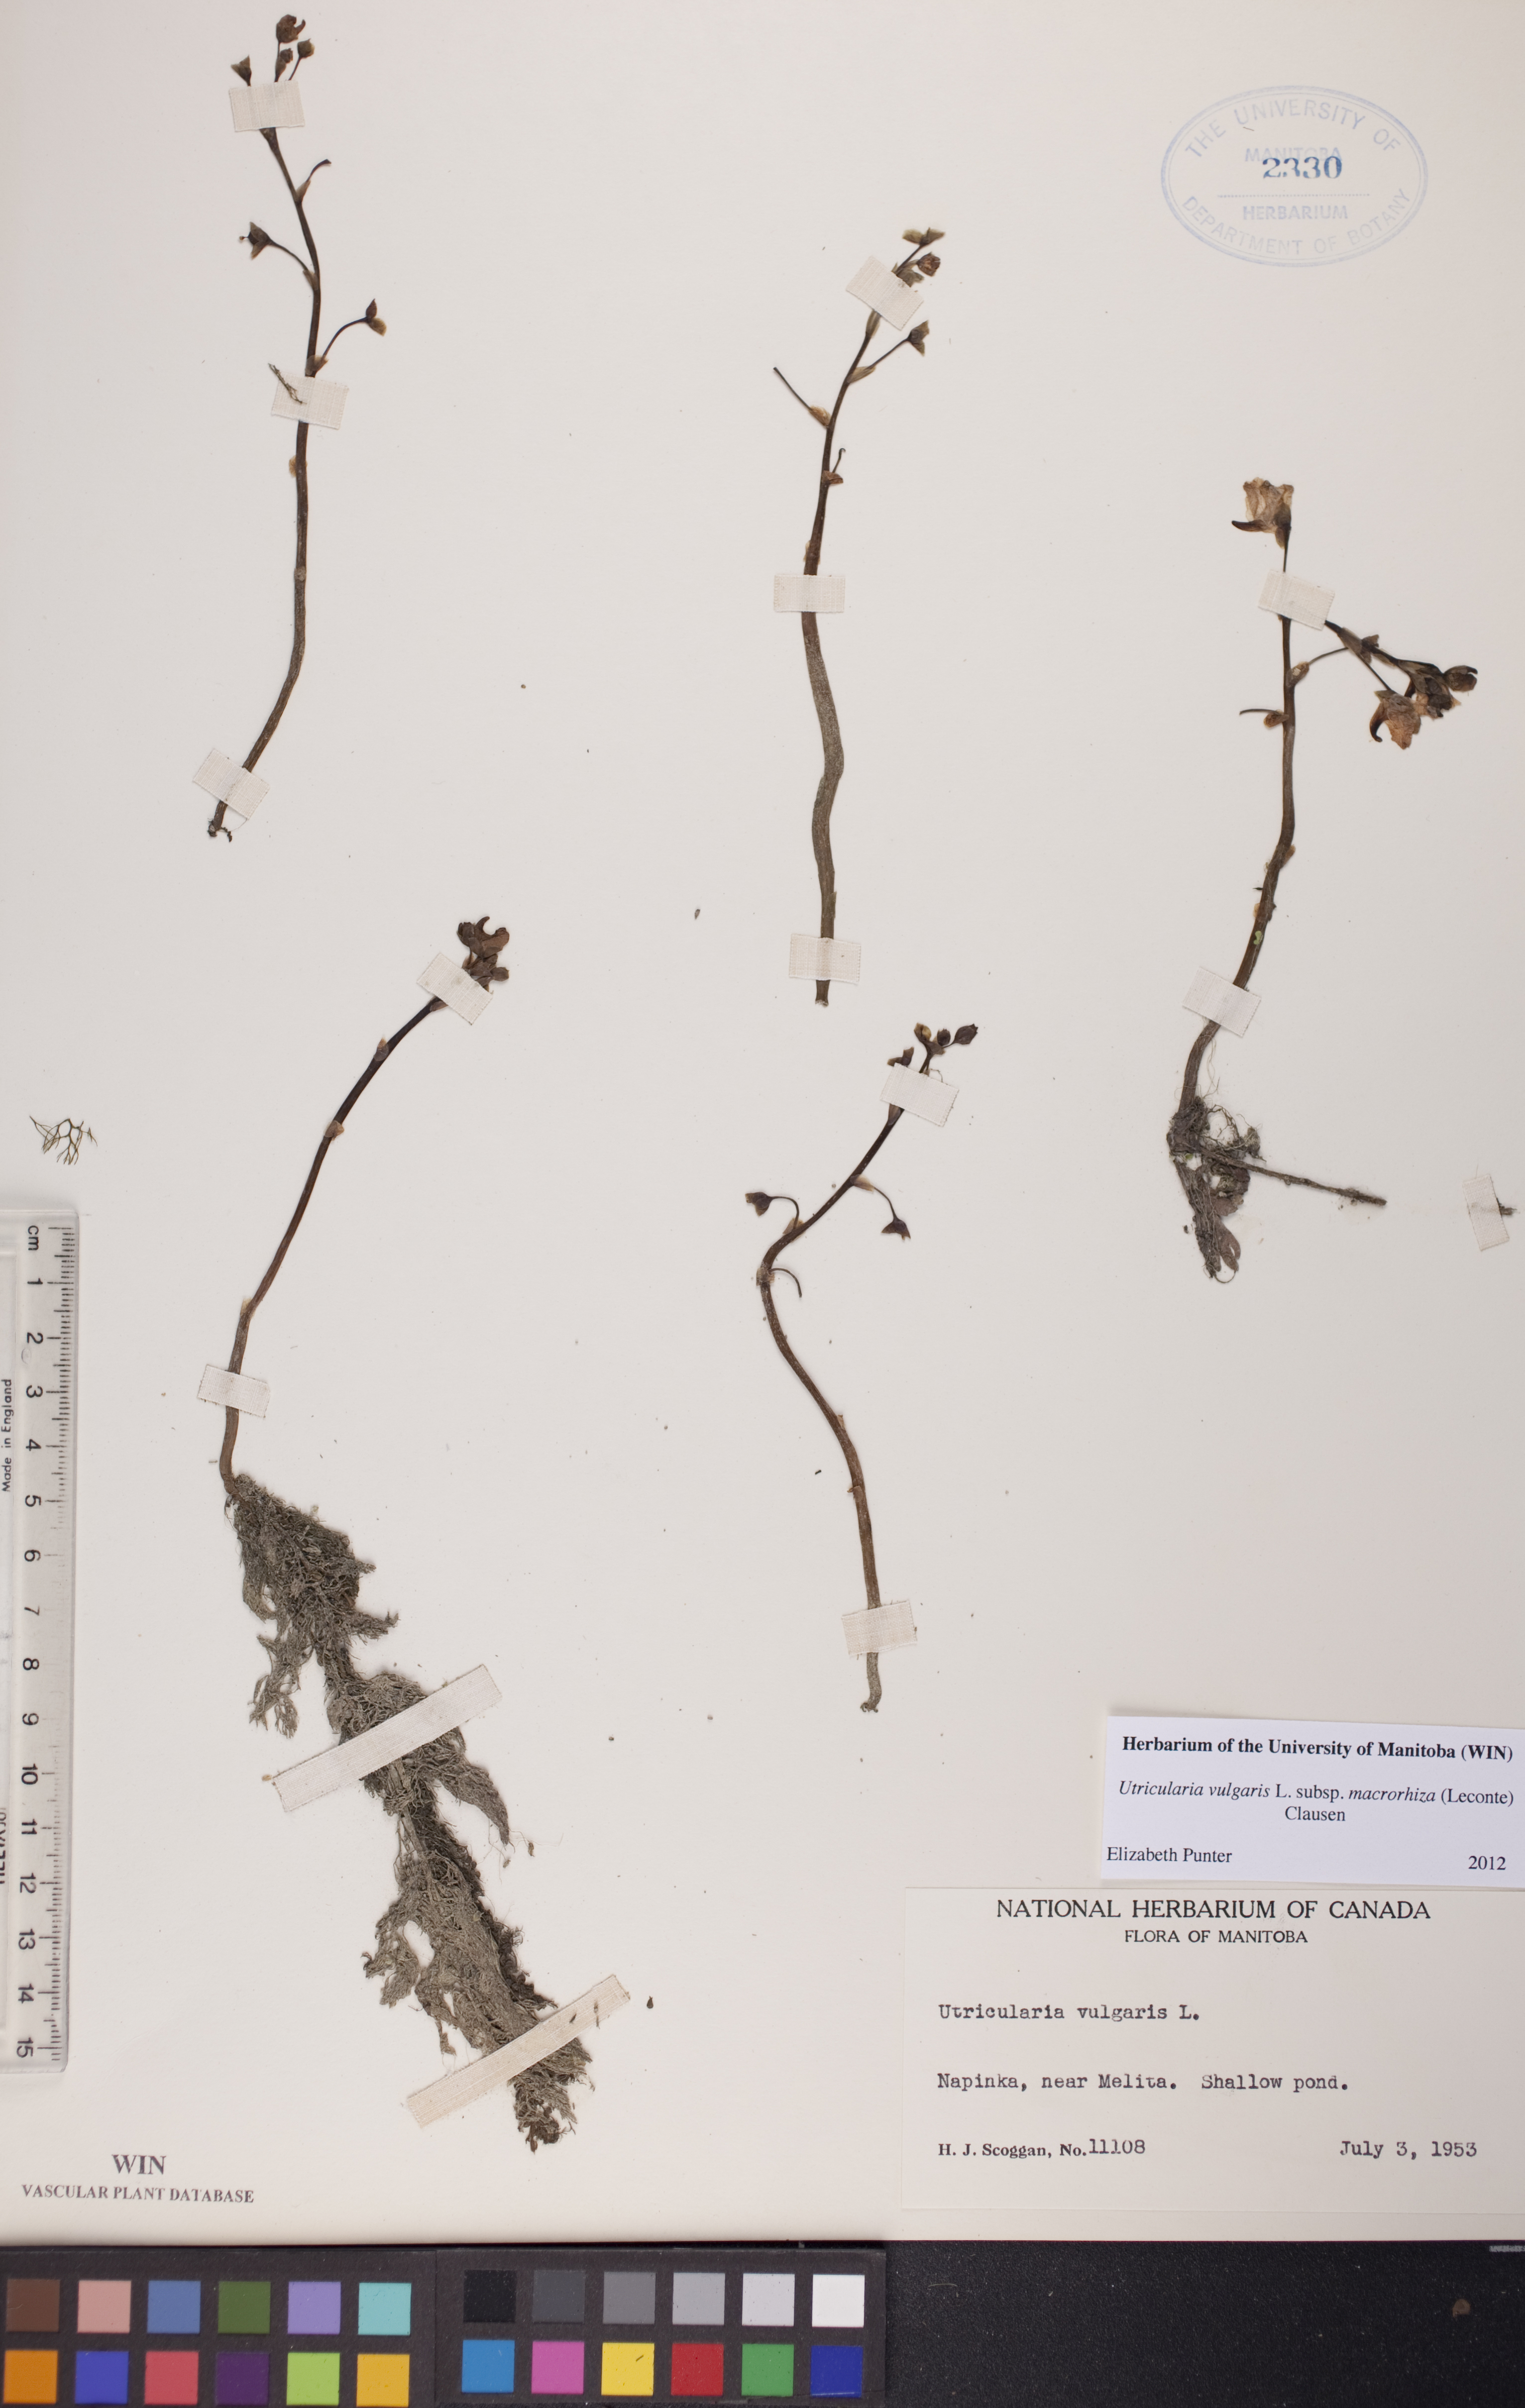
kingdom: Plantae
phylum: Tracheophyta
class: Magnoliopsida
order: Lamiales
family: Lentibulariaceae
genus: Utricularia
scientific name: Utricularia macrorhiza
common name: Common bladderwort
